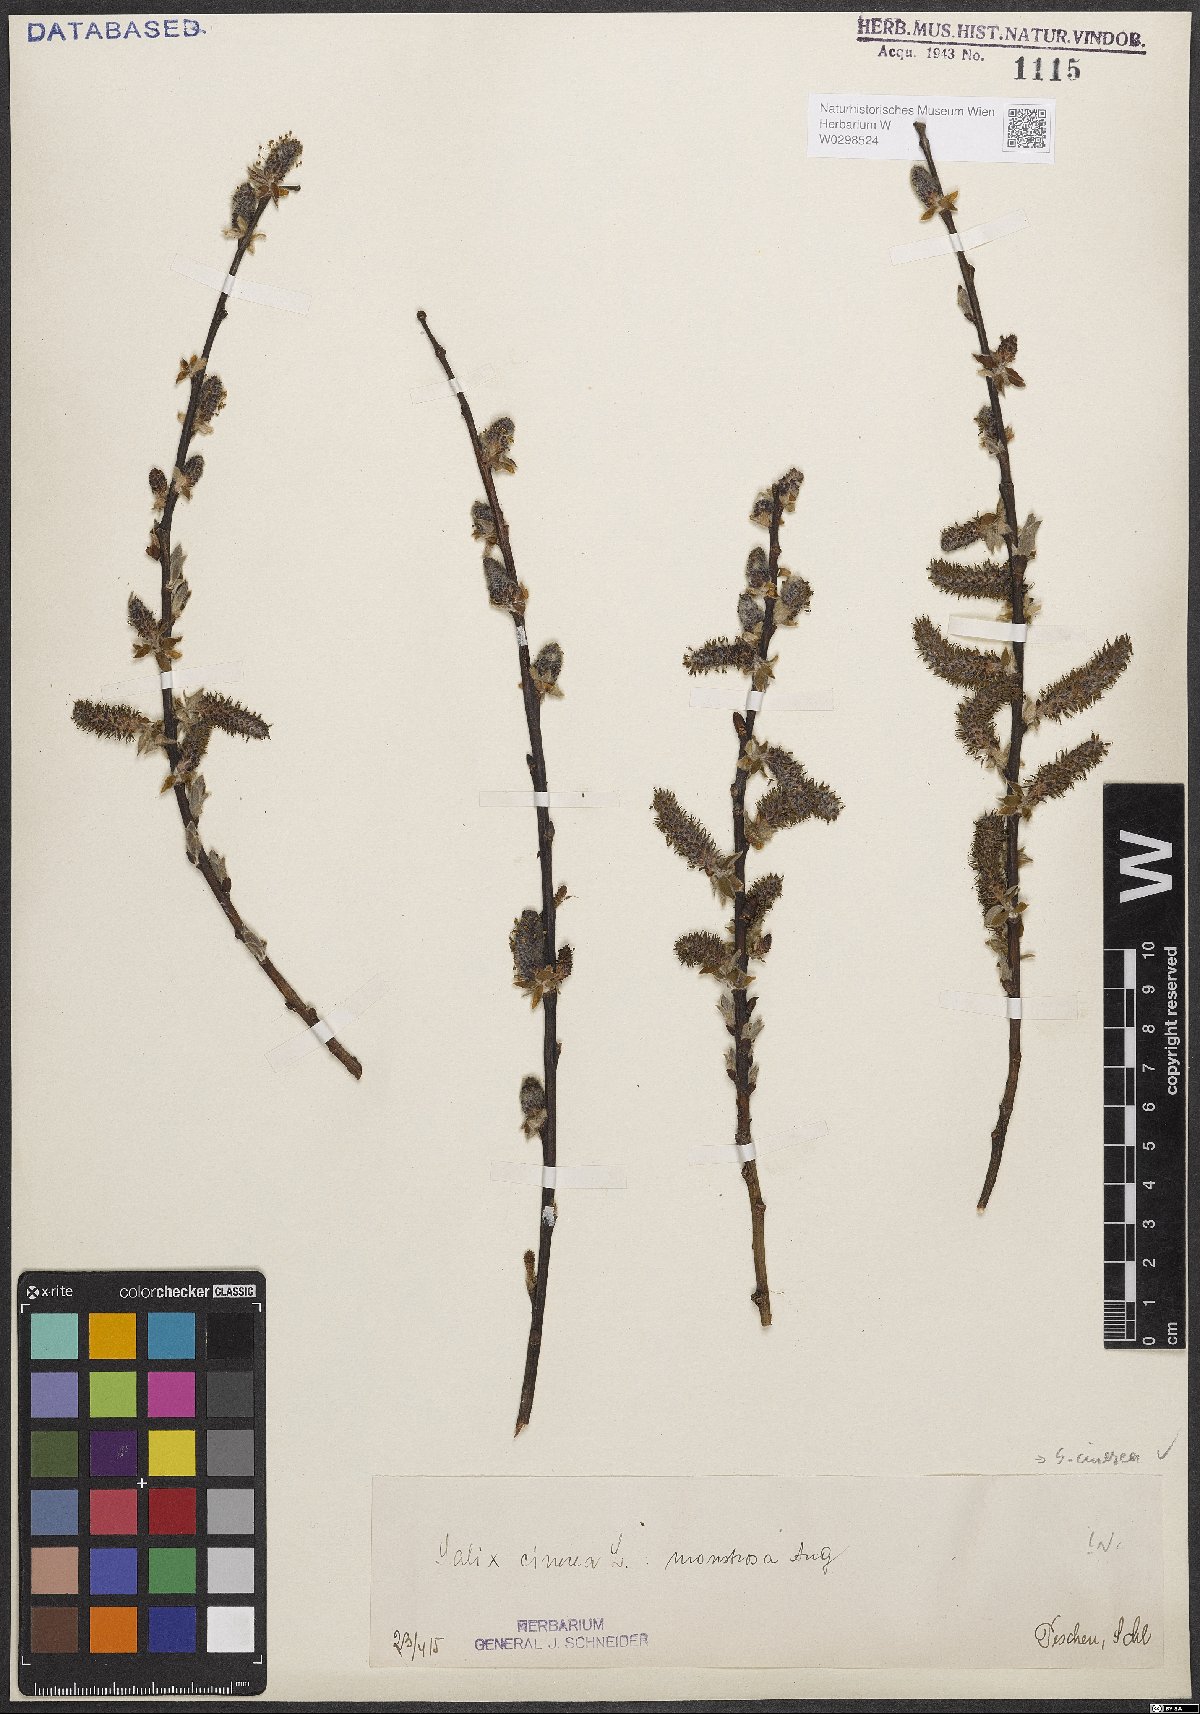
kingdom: Plantae
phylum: Tracheophyta
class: Magnoliopsida
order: Malpighiales
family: Salicaceae
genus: Salix
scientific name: Salix cinerea
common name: Common sallow
